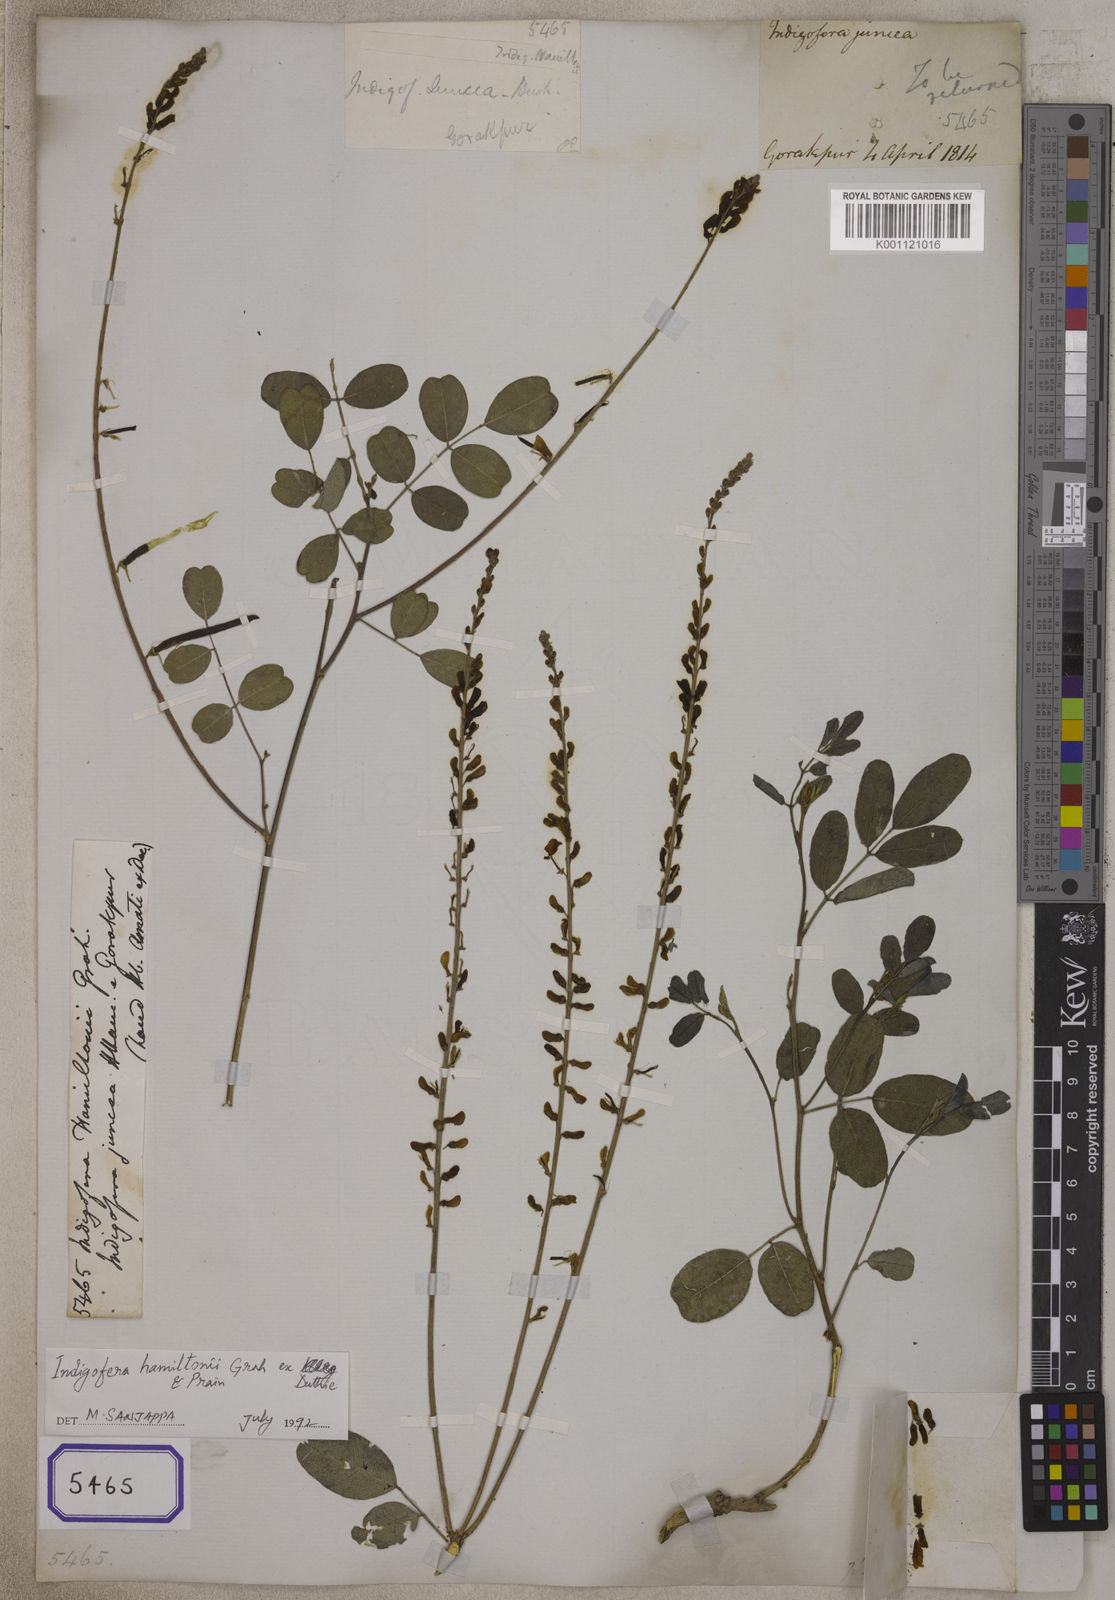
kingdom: Plantae
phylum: Tracheophyta
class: Magnoliopsida
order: Fabales
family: Fabaceae
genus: Indigofera
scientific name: Indigofera
